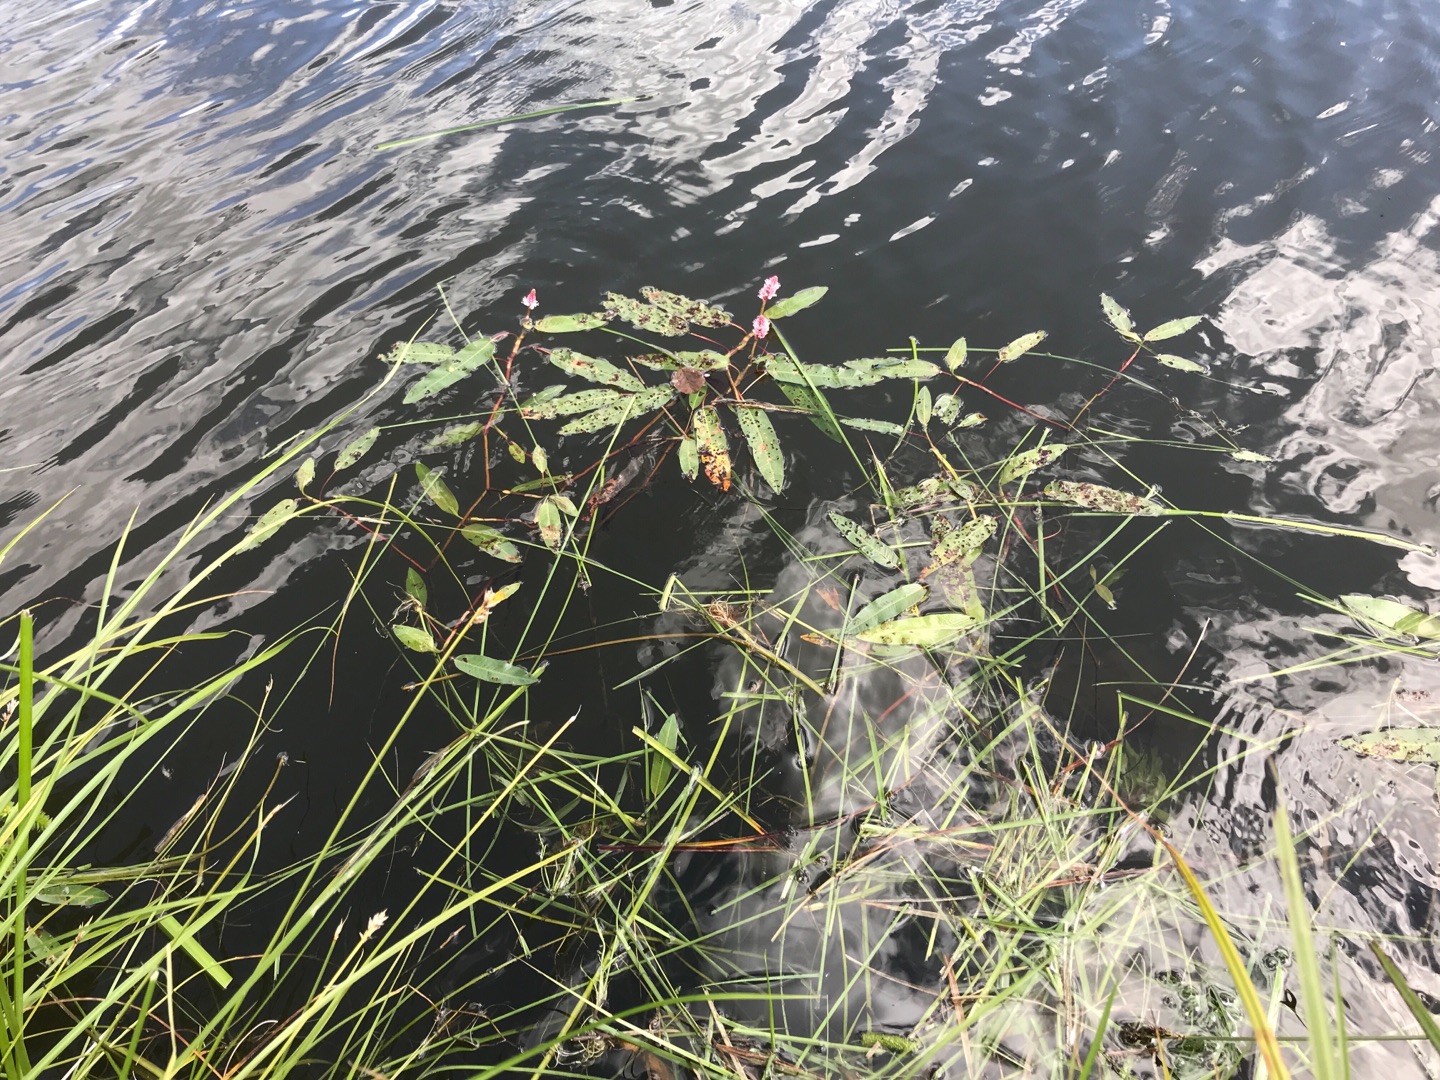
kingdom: Plantae
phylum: Tracheophyta
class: Magnoliopsida
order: Caryophyllales
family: Polygonaceae
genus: Persicaria
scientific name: Persicaria amphibia
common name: Vand-pileurt
